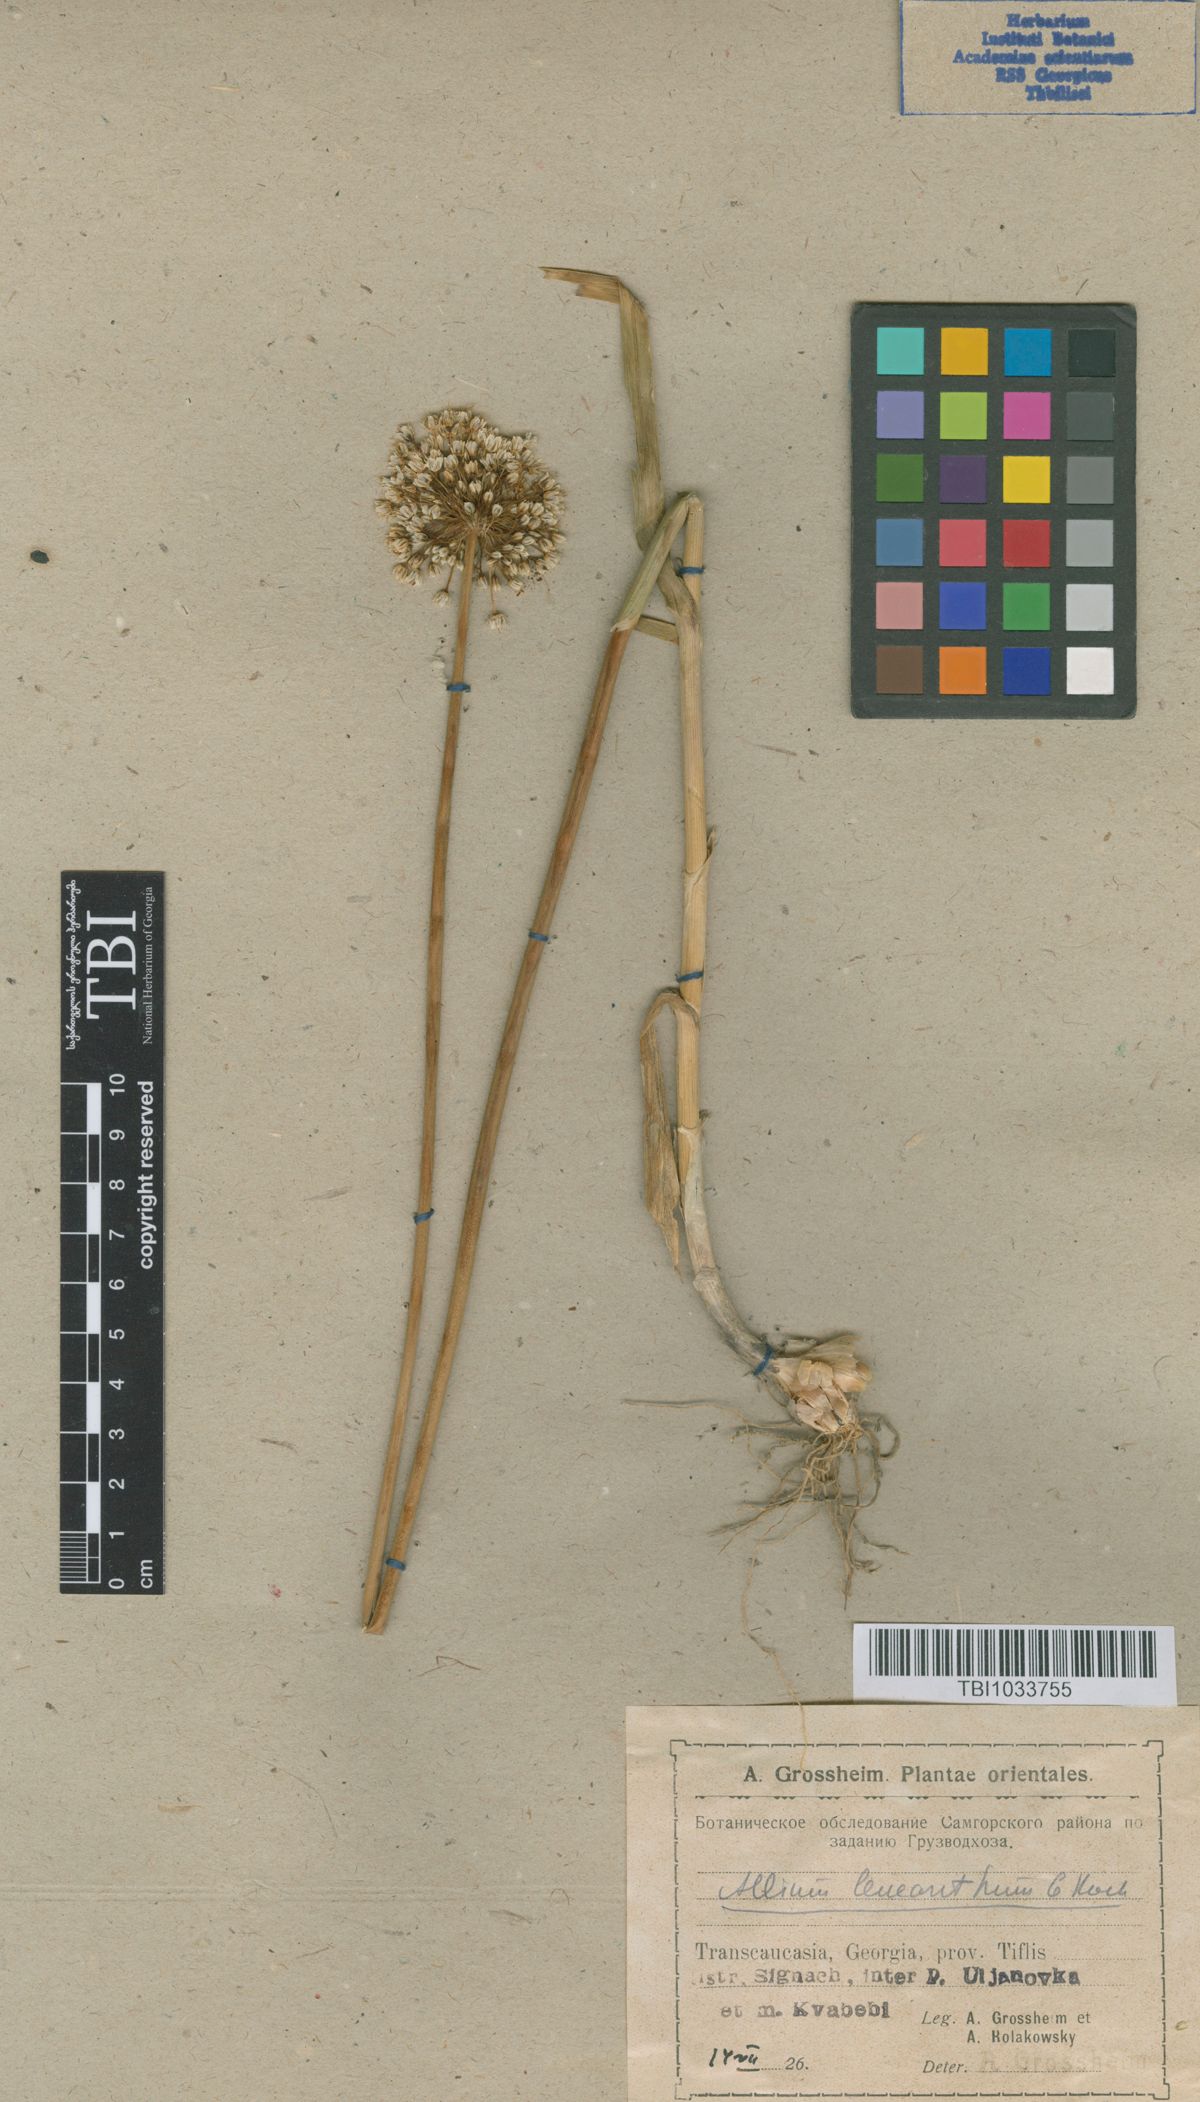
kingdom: Plantae
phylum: Tracheophyta
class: Liliopsida
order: Asparagales
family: Amaryllidaceae
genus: Allium
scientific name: Allium ampeloprasum
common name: Wild leek
